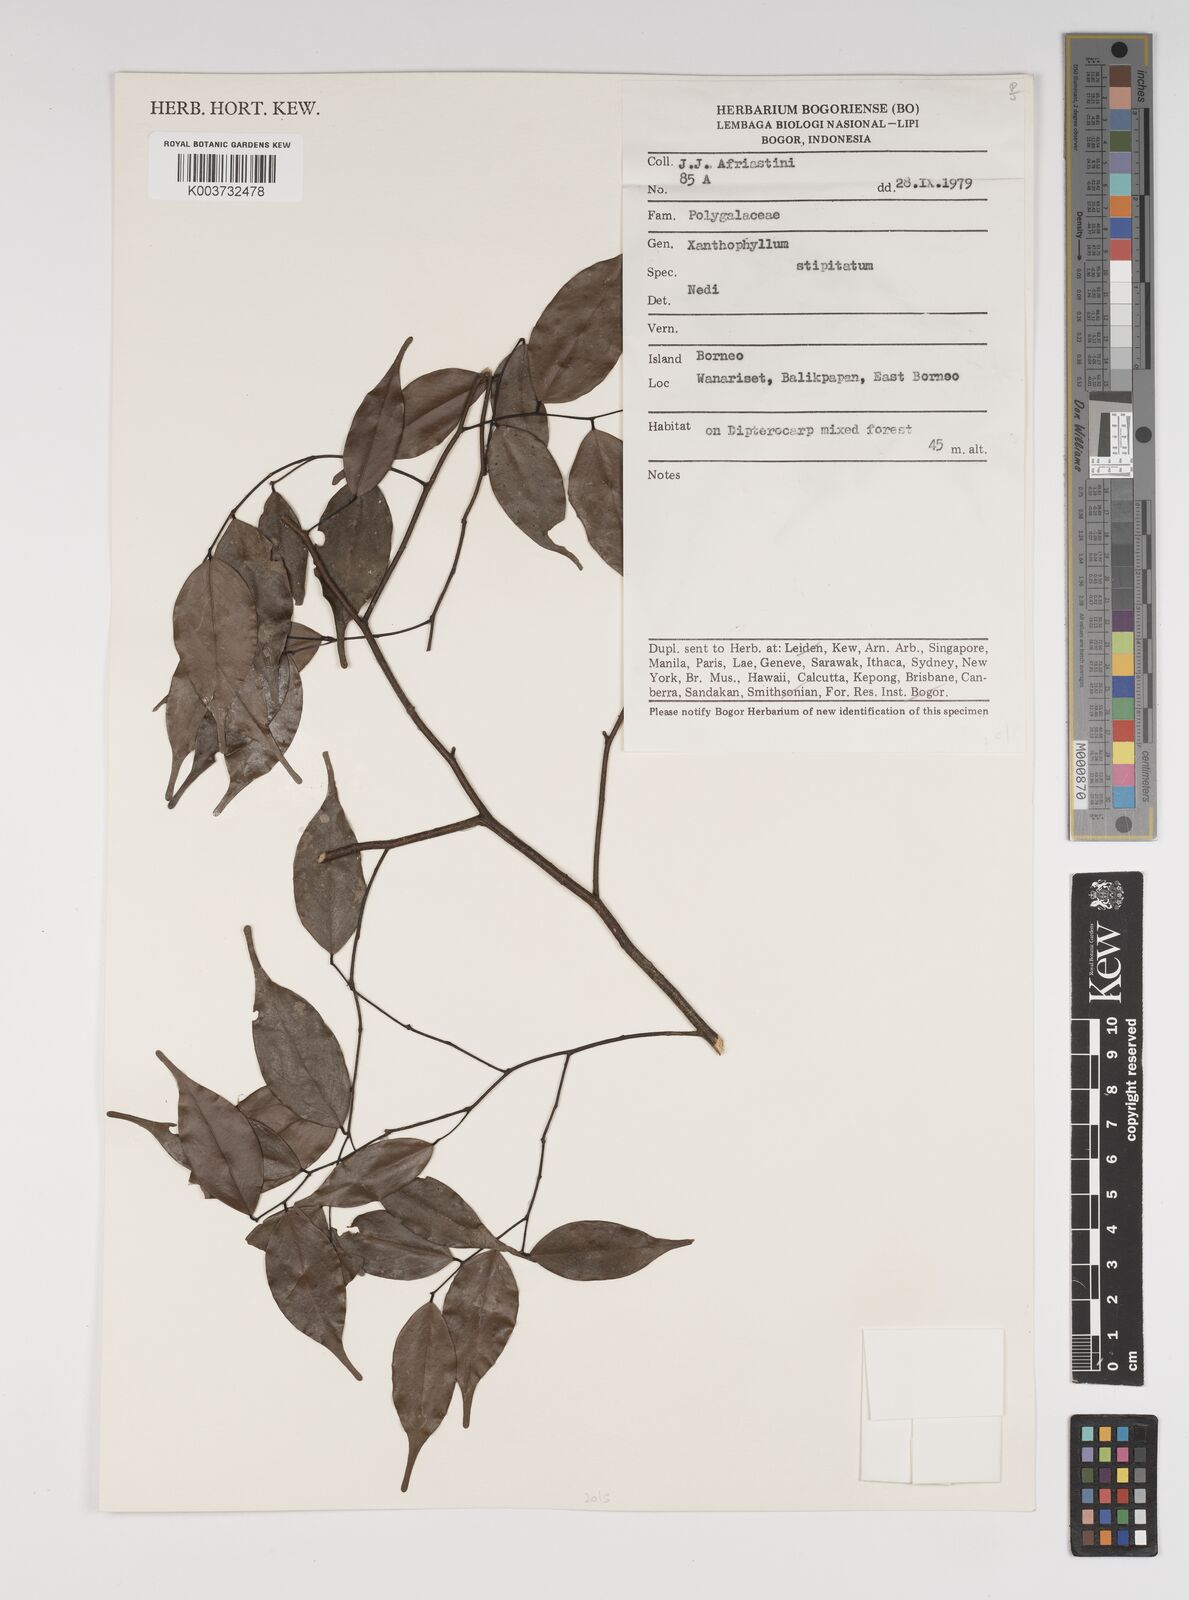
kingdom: Plantae
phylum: Tracheophyta
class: Magnoliopsida
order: Fabales
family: Polygalaceae
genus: Xanthophyllum
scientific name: Xanthophyllum stipitatum
